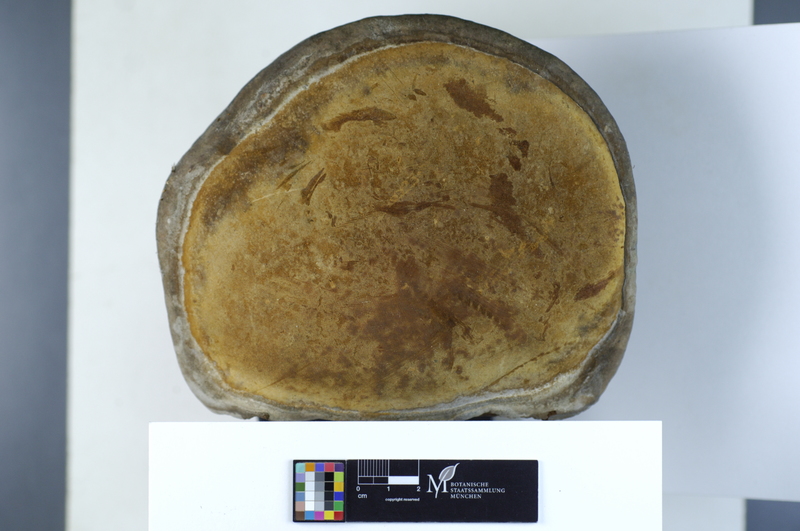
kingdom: Fungi
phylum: Basidiomycota
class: Agaricomycetes
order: Hymenochaetales
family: Hymenochaetaceae
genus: Phellinus
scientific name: Phellinus igniarius
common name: Willow bracket
